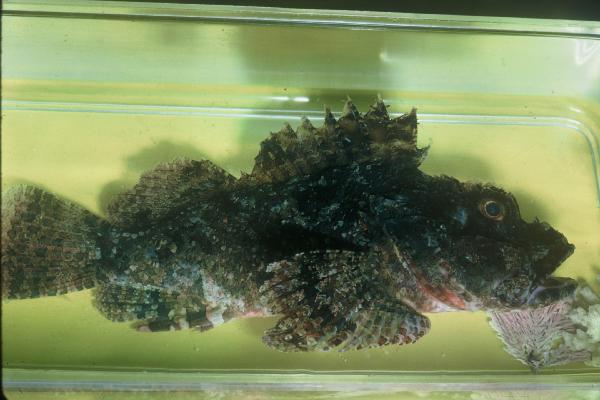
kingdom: Animalia
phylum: Chordata
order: Scorpaeniformes
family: Scorpaenidae
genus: Scorpaenopsis
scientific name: Scorpaenopsis venosa
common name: Raggy scorpionfish
